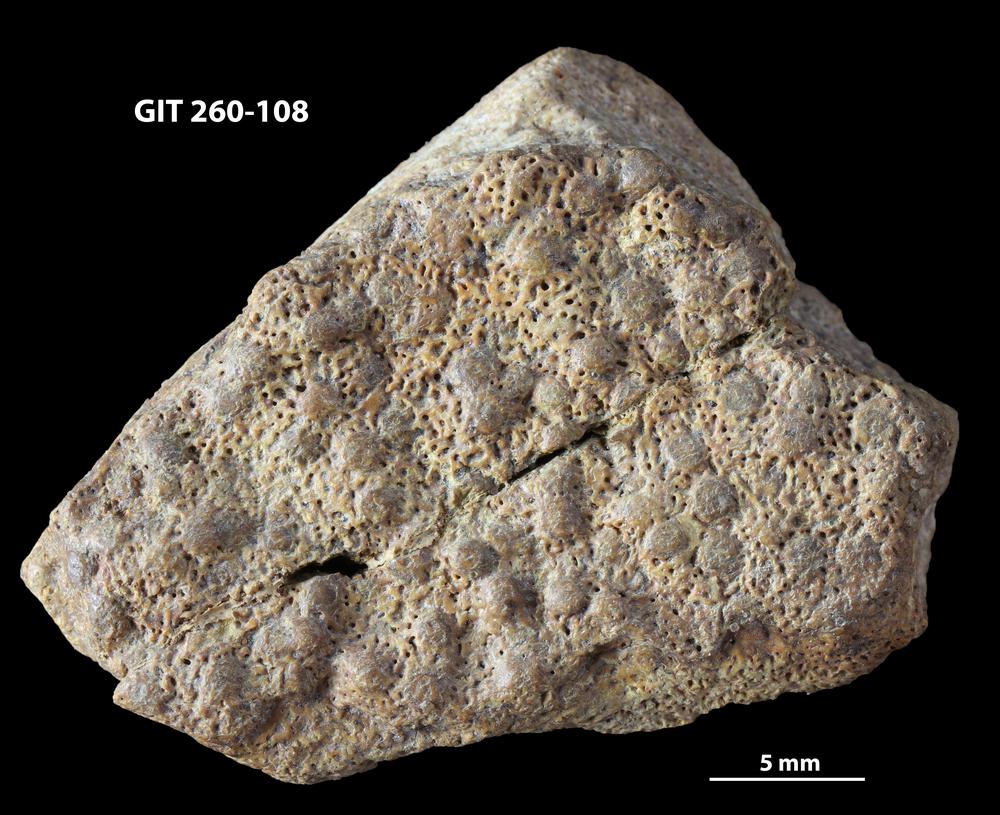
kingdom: Animalia
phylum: Chordata
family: Homostiidae
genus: Homostius
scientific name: Homostius
